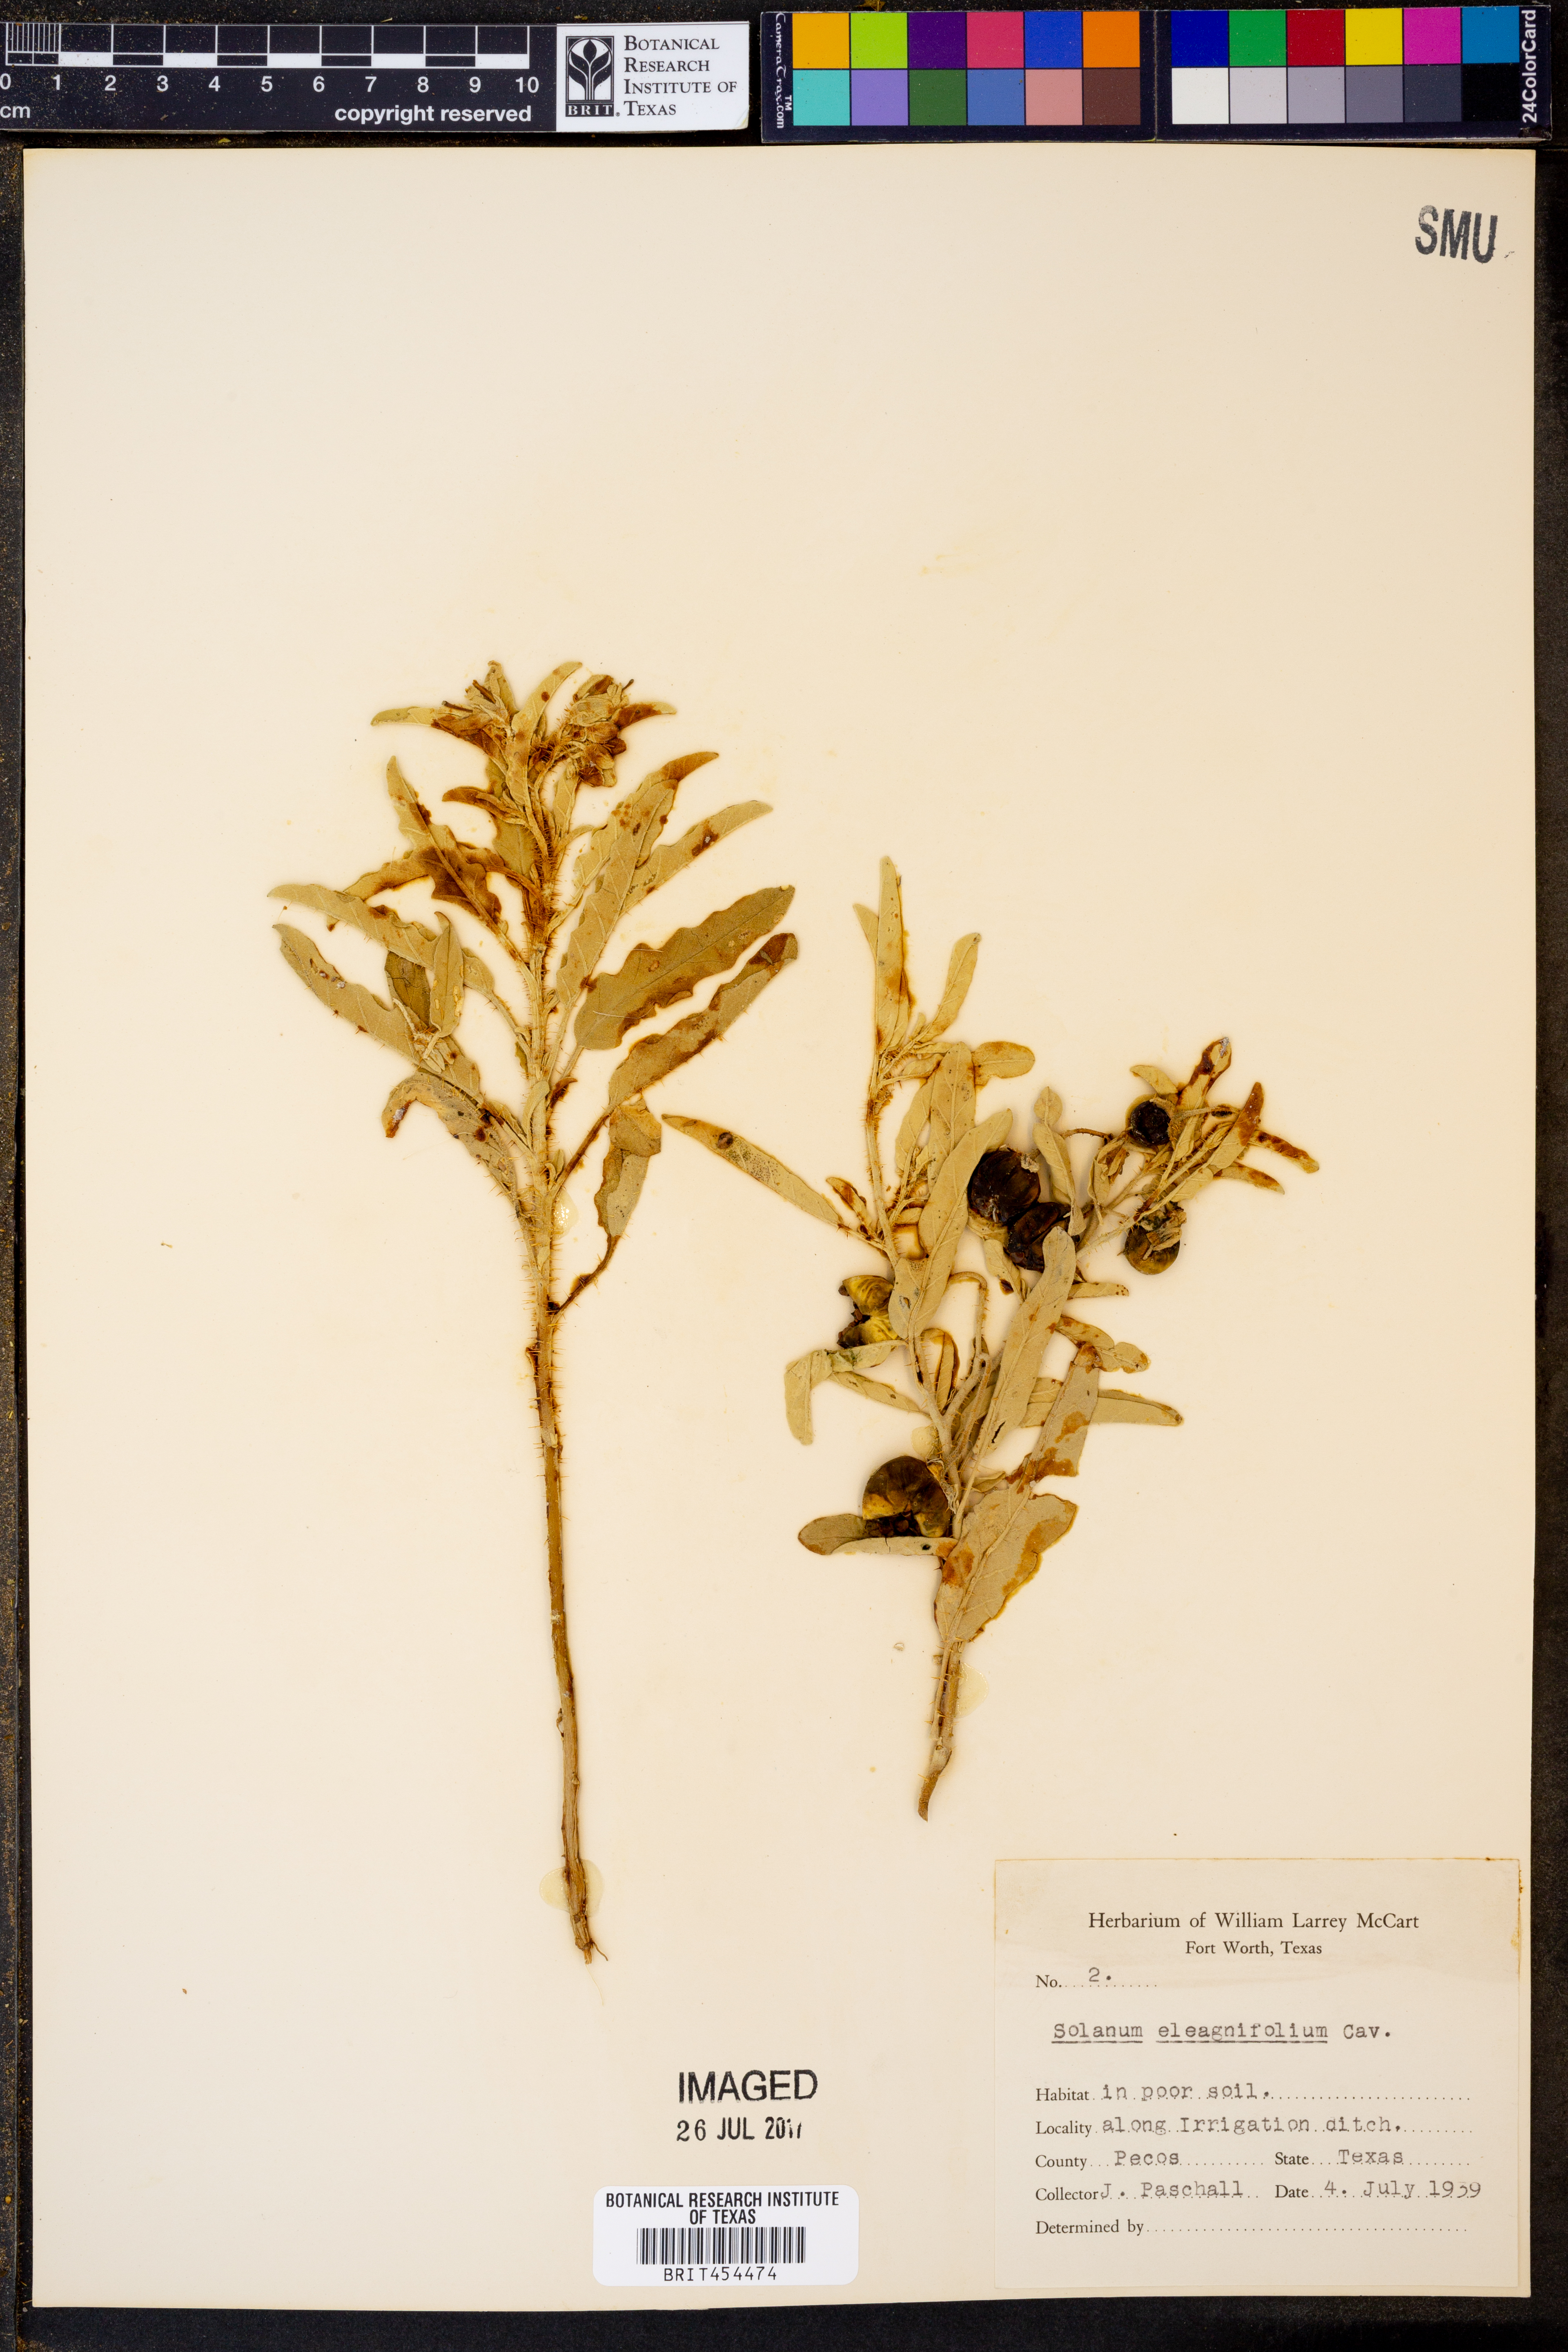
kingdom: Plantae
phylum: Tracheophyta
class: Magnoliopsida
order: Solanales
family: Solanaceae
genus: Solanum
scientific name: Solanum elaeagnifolium
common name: Silverleaf nightshade
